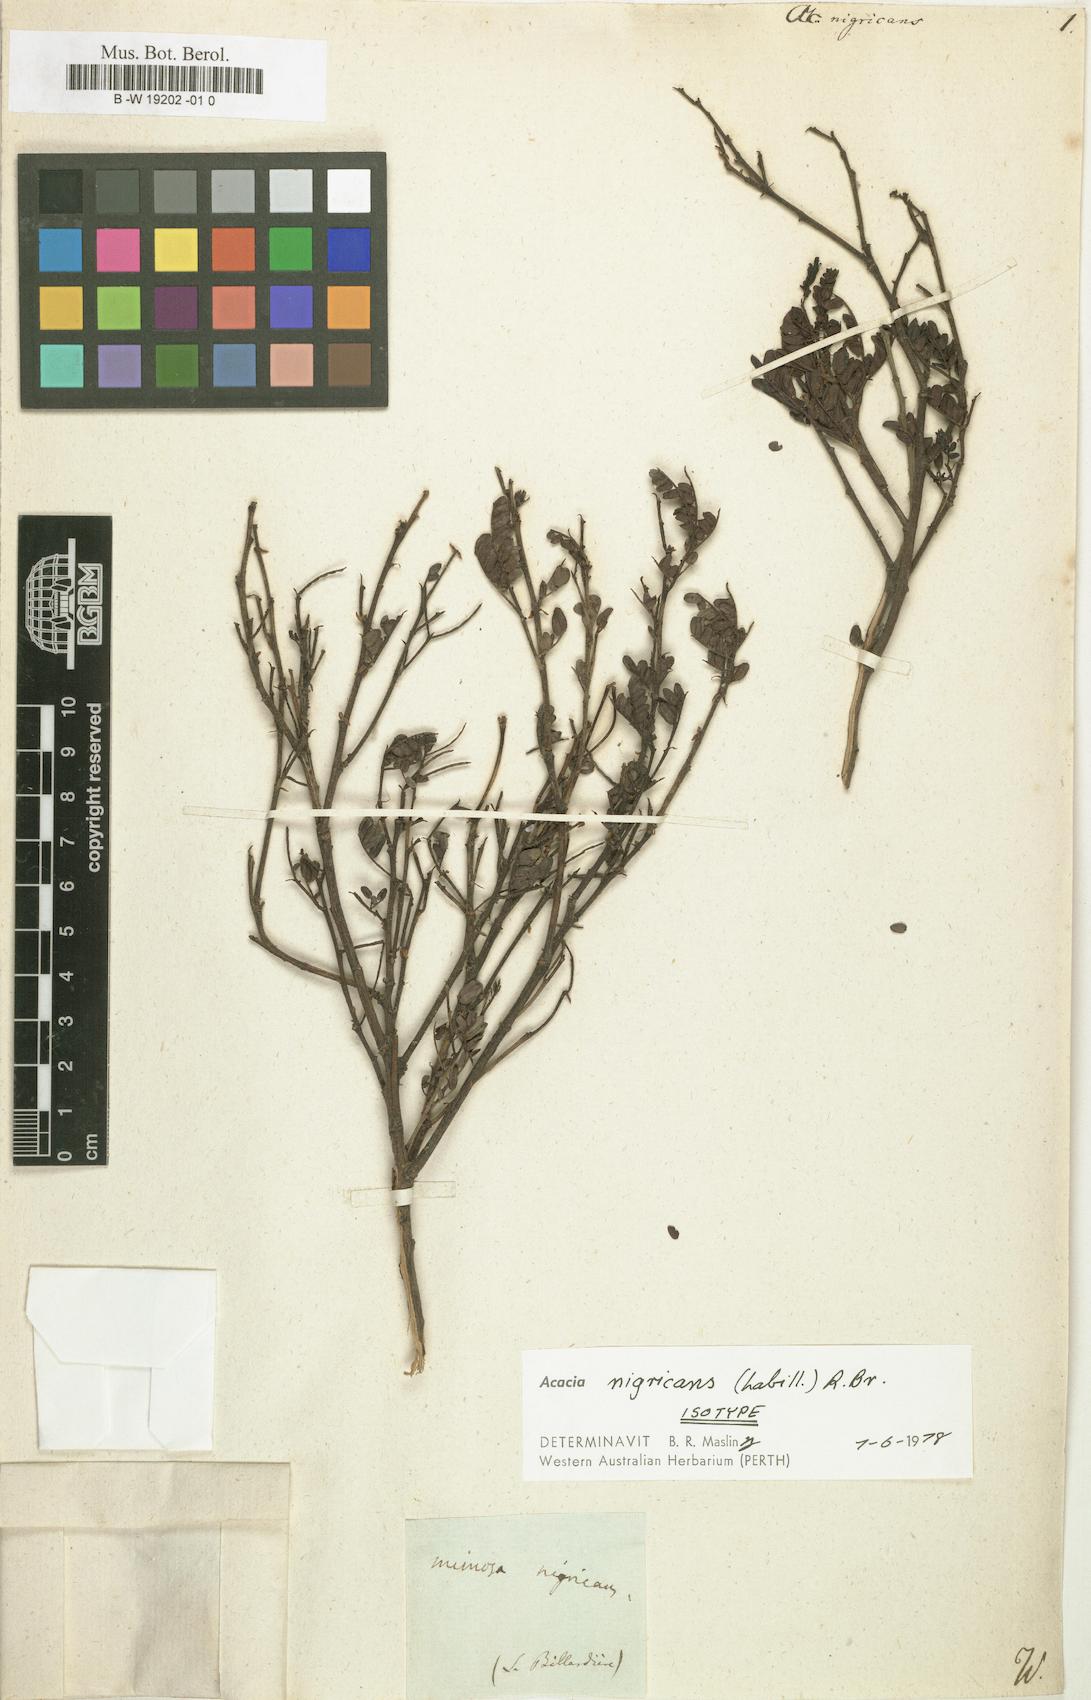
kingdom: Plantae
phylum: Tracheophyta
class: Magnoliopsida
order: Fabales
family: Fabaceae
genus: Acacia
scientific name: Acacia nigricans
